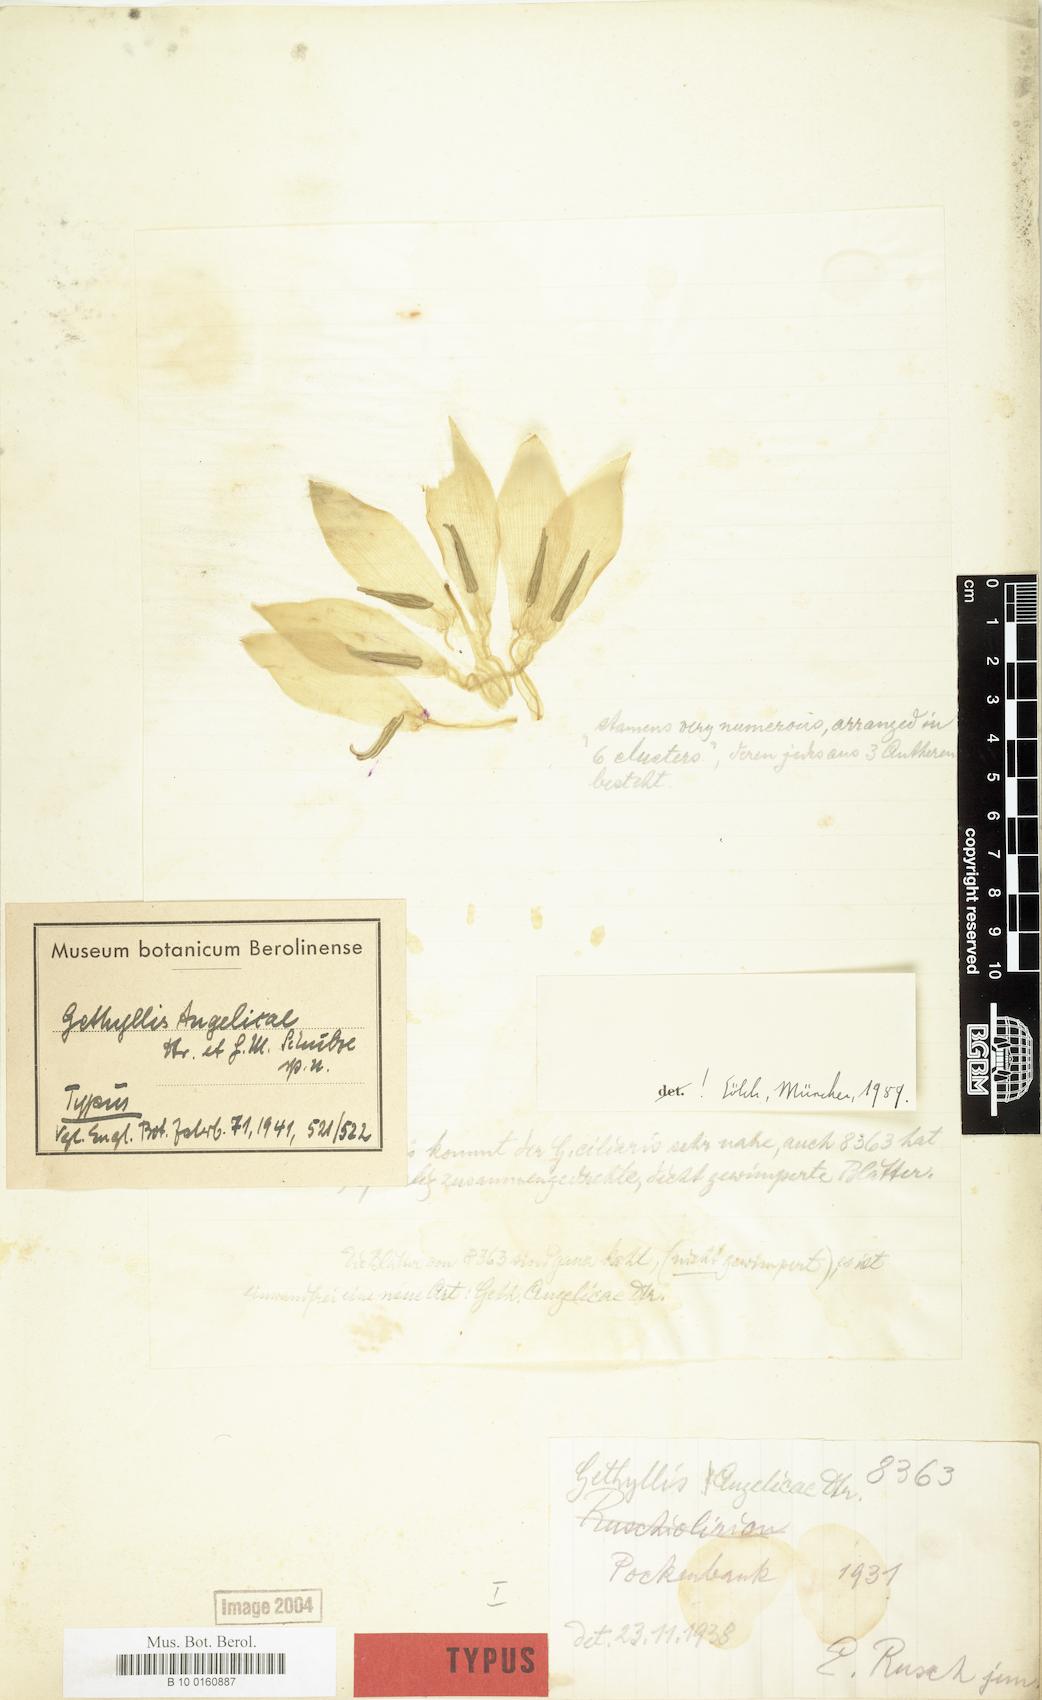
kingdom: Plantae
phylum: Tracheophyta
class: Liliopsida
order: Asparagales
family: Amaryllidaceae
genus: Gethyllis
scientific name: Gethyllis namaquensis
